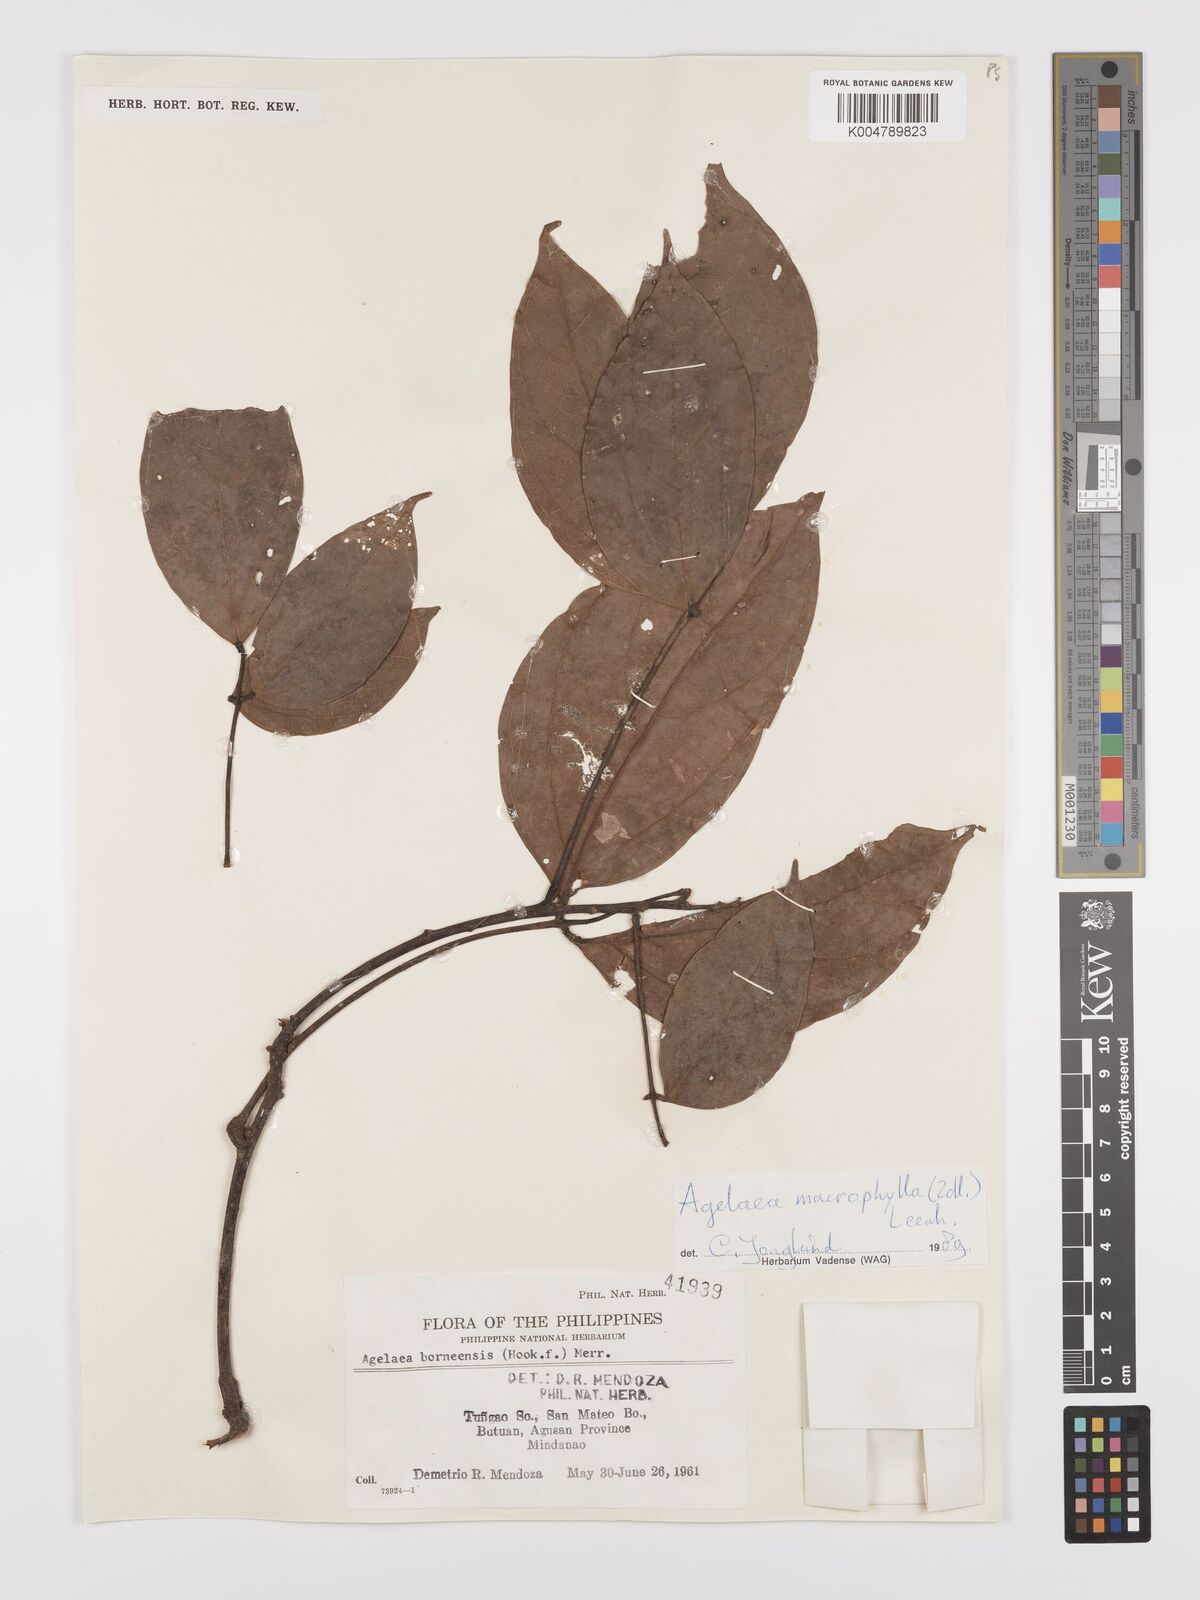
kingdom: Plantae
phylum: Tracheophyta
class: Magnoliopsida
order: Oxalidales
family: Connaraceae
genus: Agelaea
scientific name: Agelaea borneensis
